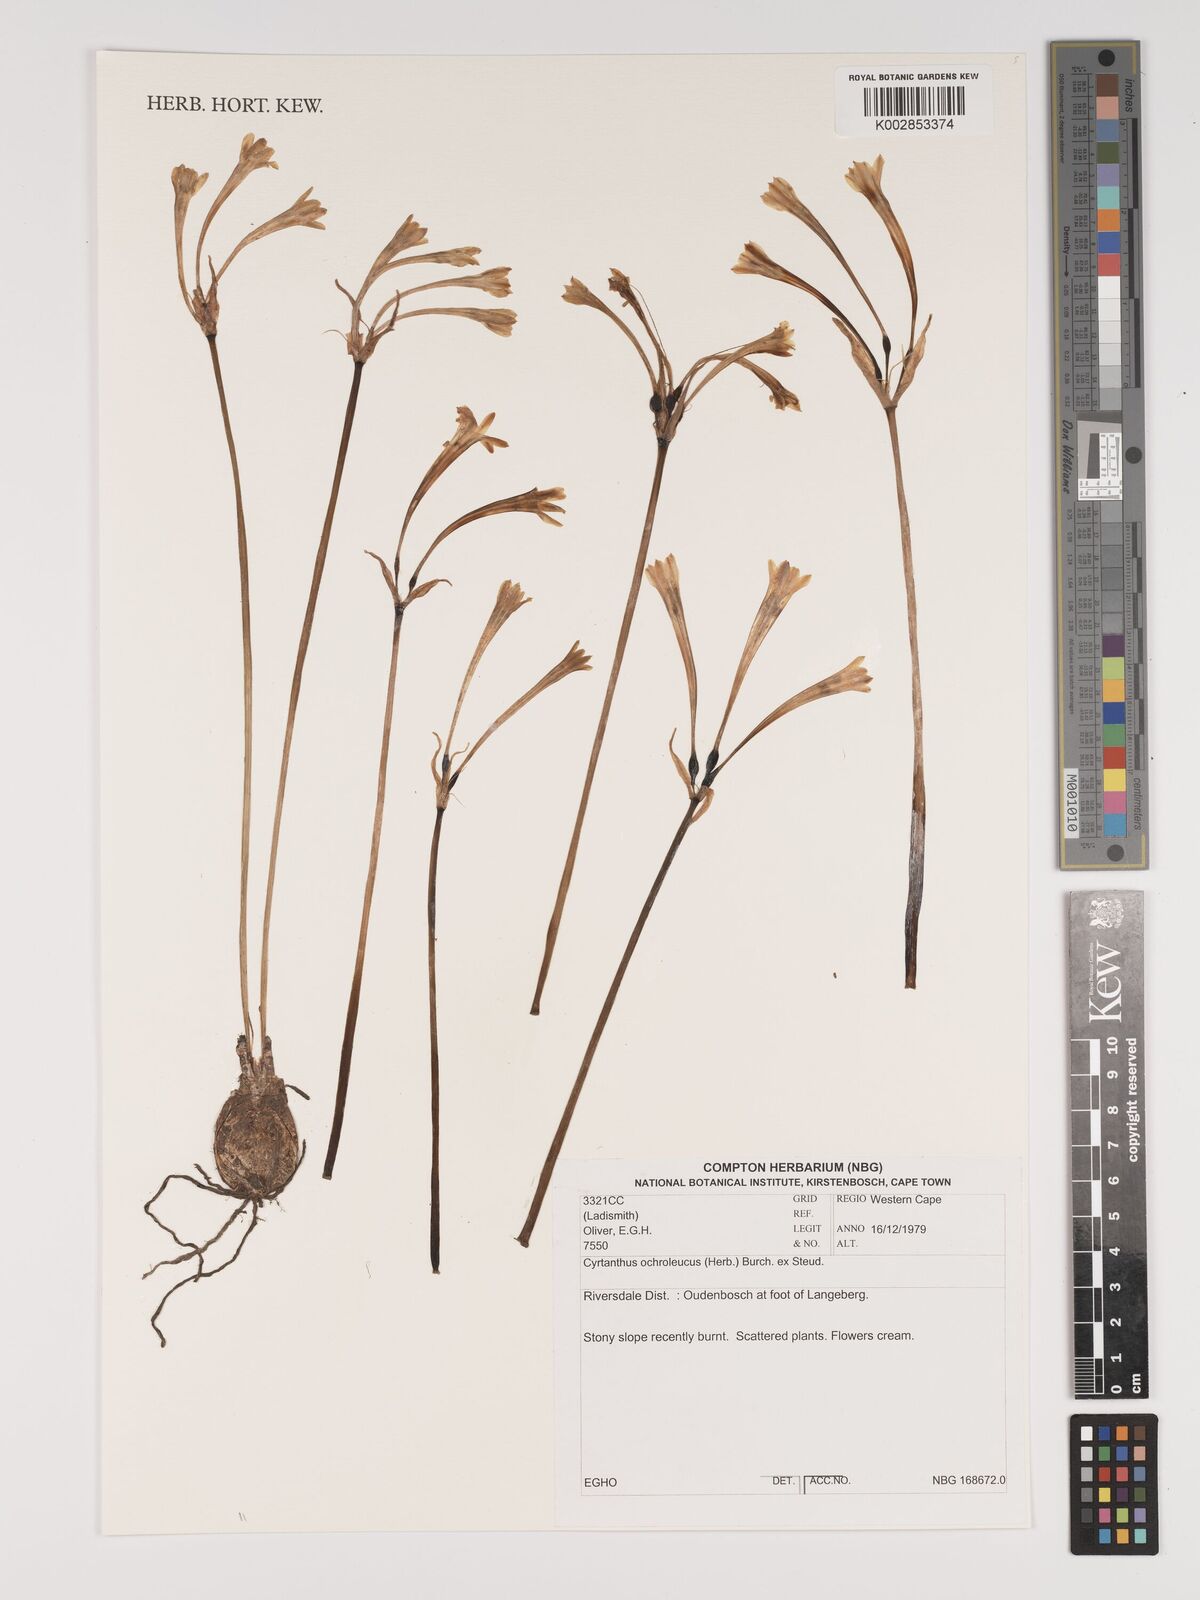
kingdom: Plantae
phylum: Tracheophyta
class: Liliopsida
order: Asparagales
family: Amaryllidaceae
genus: Cyrtanthus
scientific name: Cyrtanthus ochroleucus
